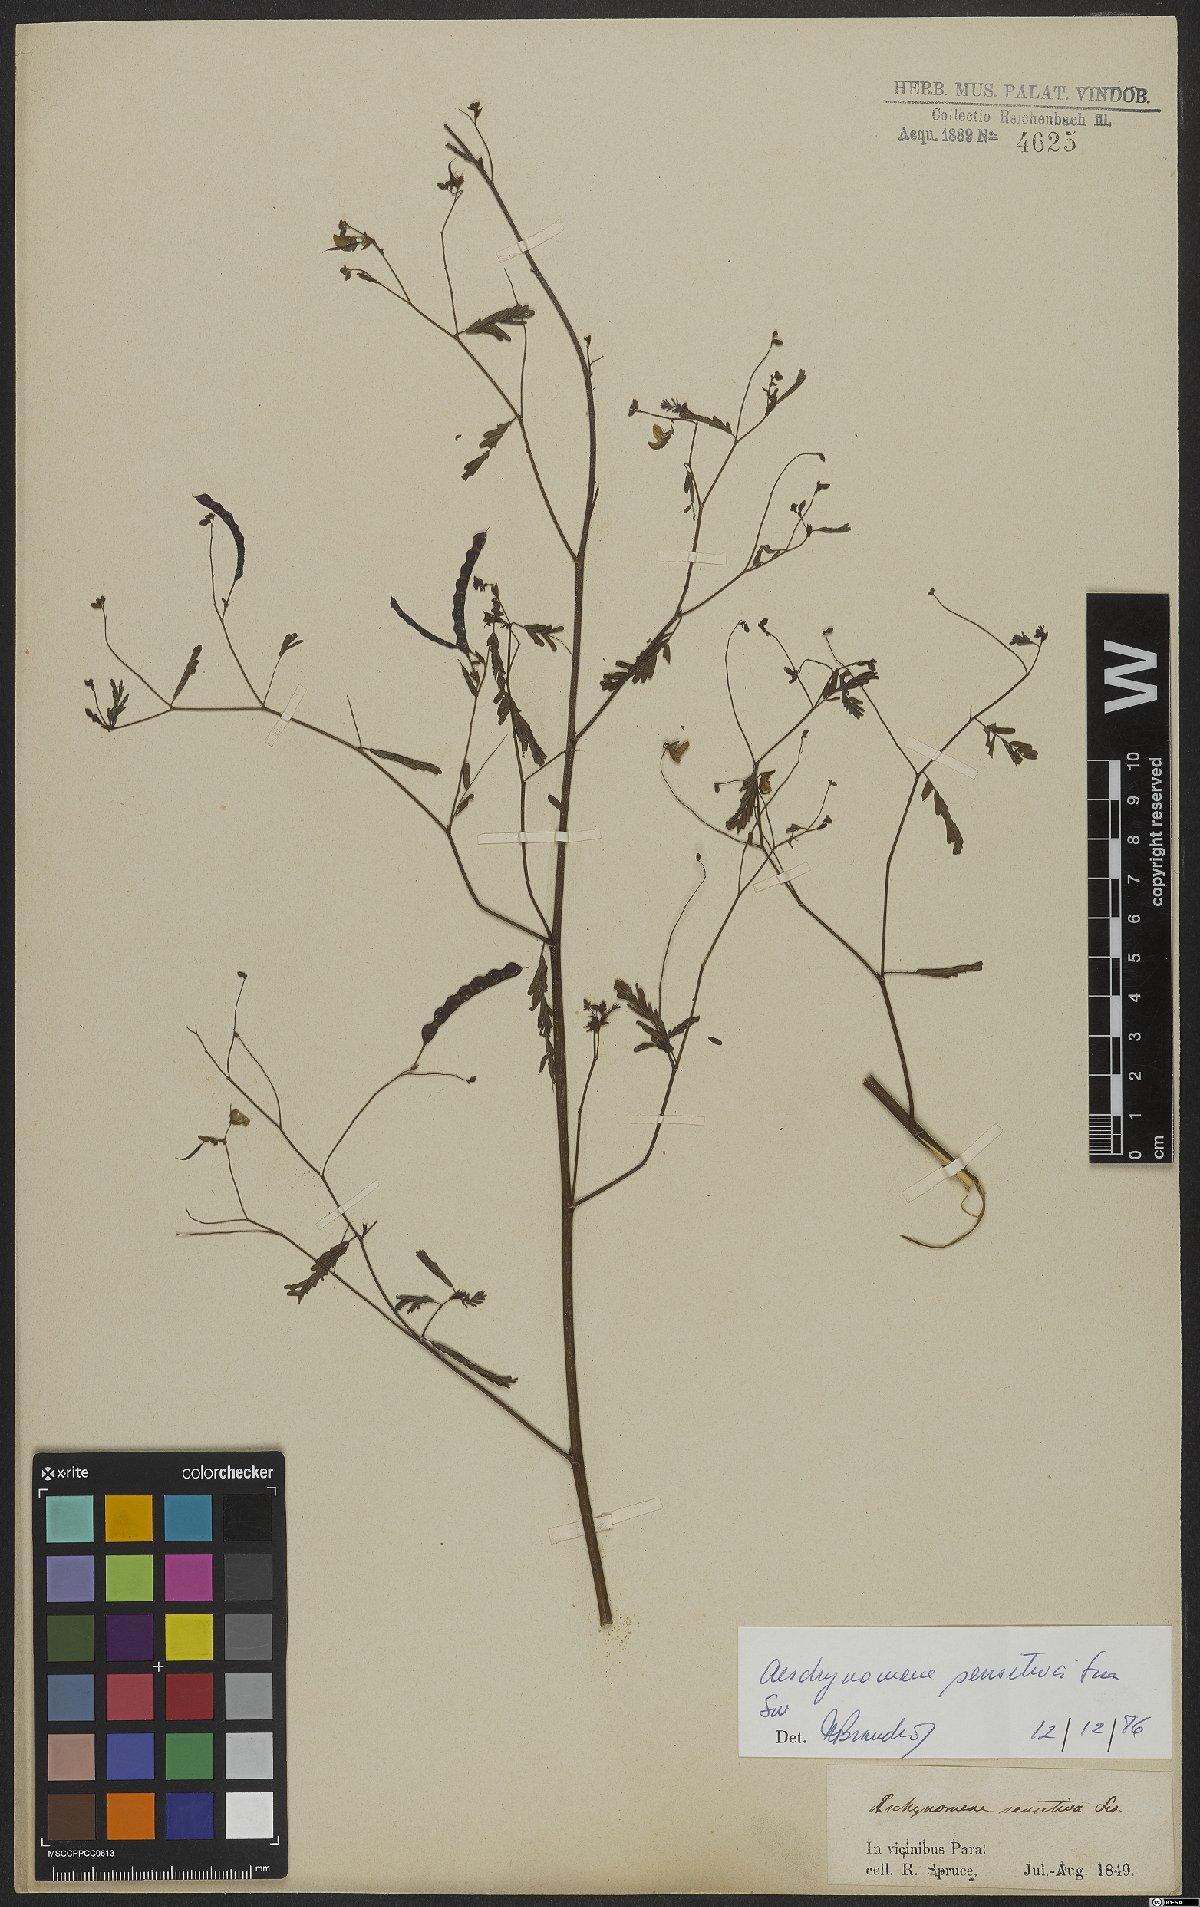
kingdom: Plantae
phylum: Tracheophyta
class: Magnoliopsida
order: Fabales
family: Fabaceae
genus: Aeschynomene
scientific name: Aeschynomene sensitiva
